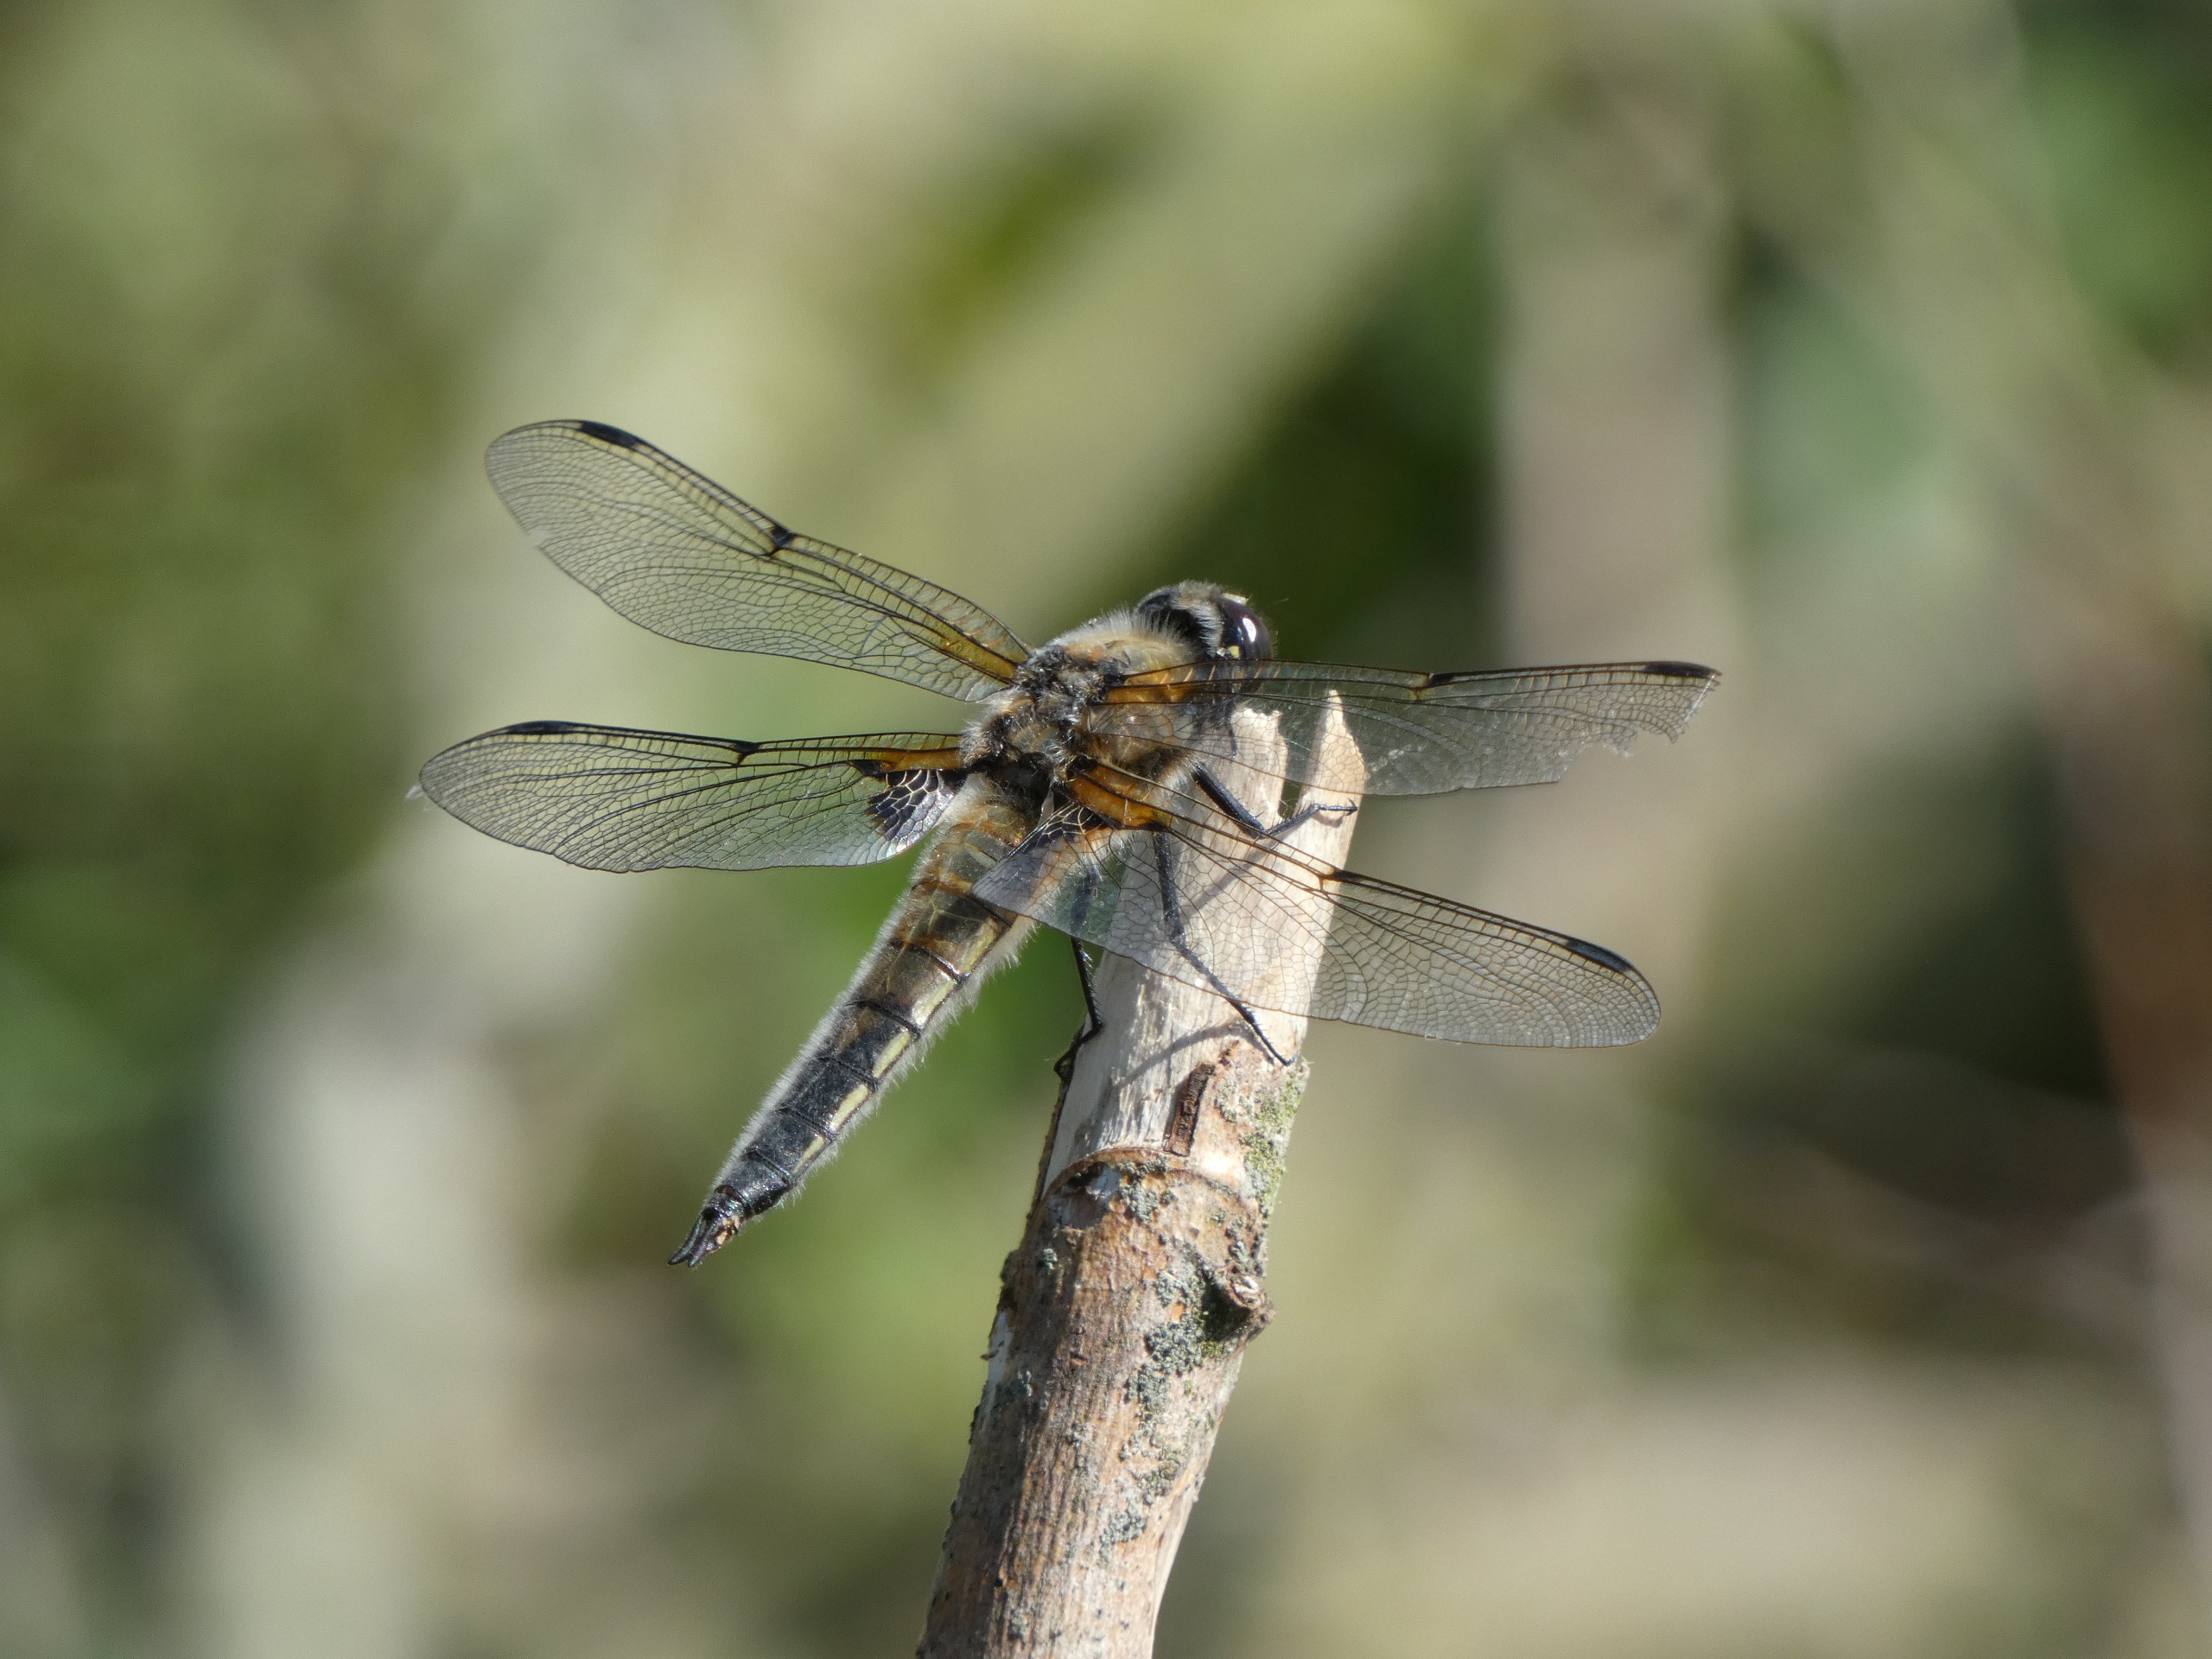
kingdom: Animalia
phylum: Arthropoda
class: Insecta
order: Odonata
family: Libellulidae
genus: Libellula
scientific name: Libellula quadrimaculata
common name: Fireplettet libel
